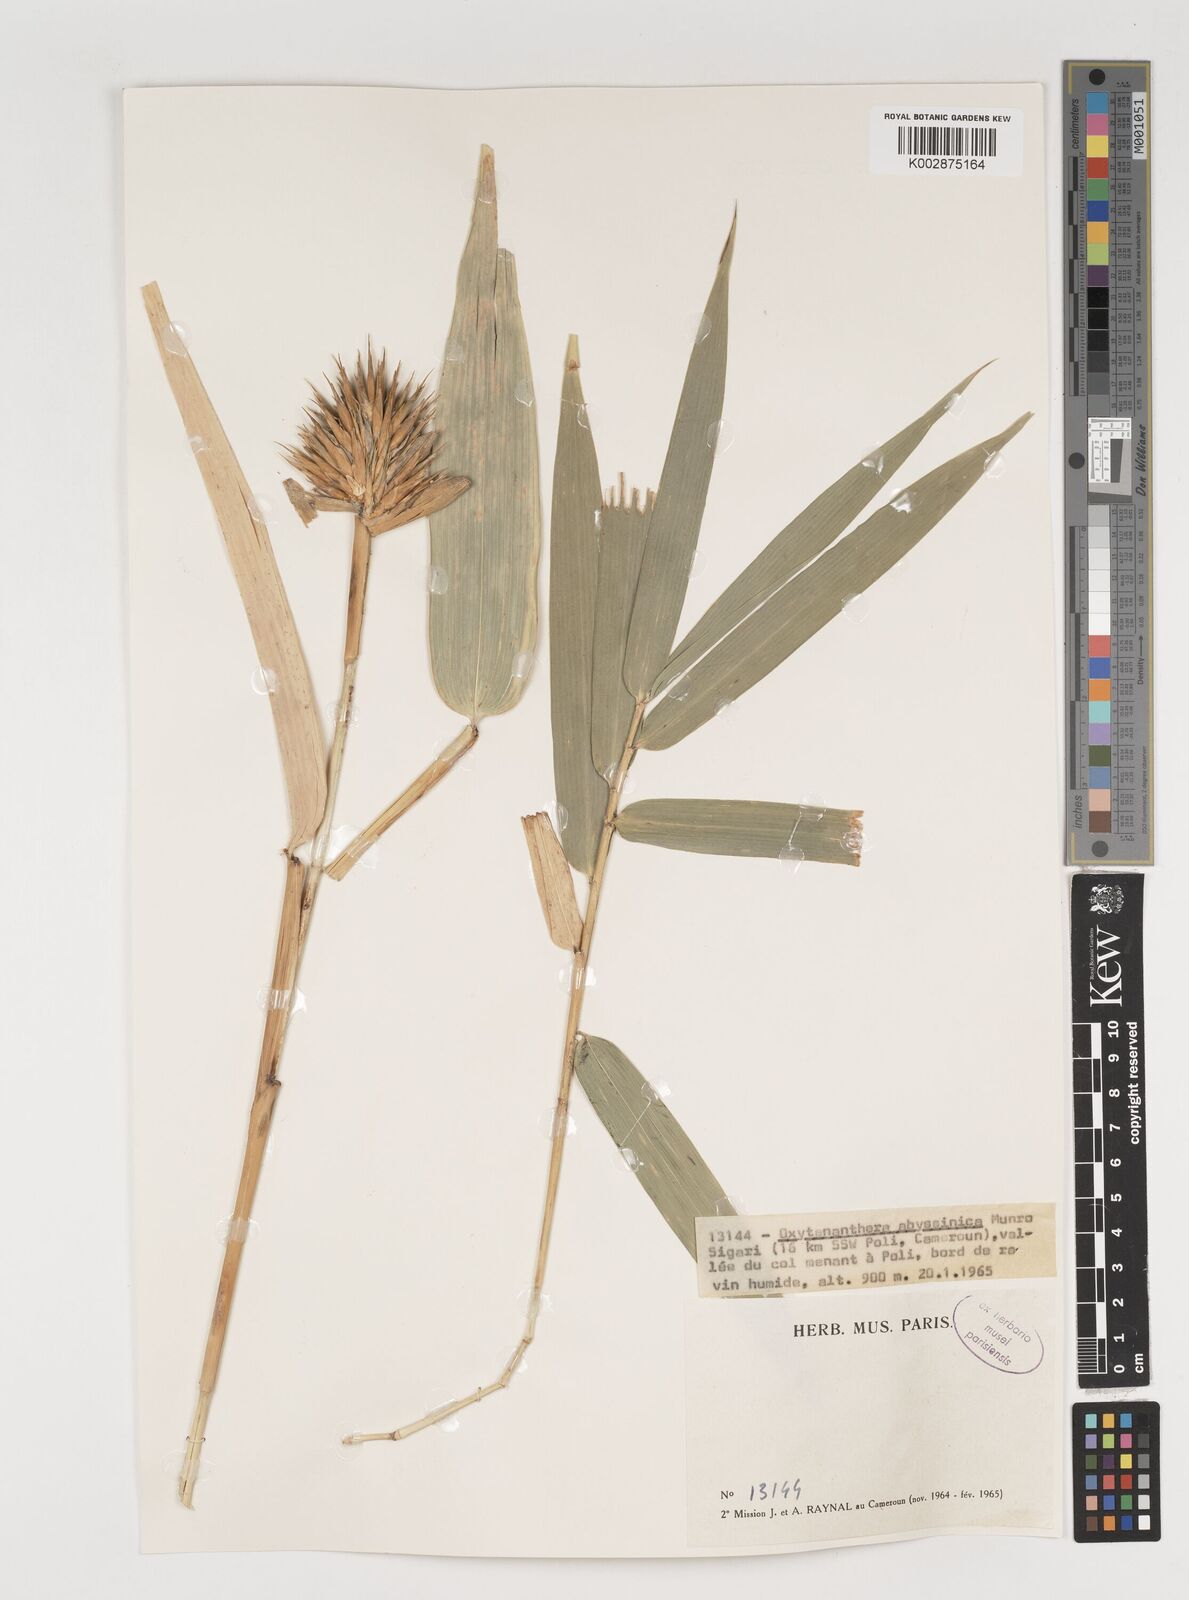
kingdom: Plantae
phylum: Tracheophyta
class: Liliopsida
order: Poales
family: Poaceae
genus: Oxytenanthera
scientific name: Oxytenanthera abyssinica
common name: Wine bamboo
